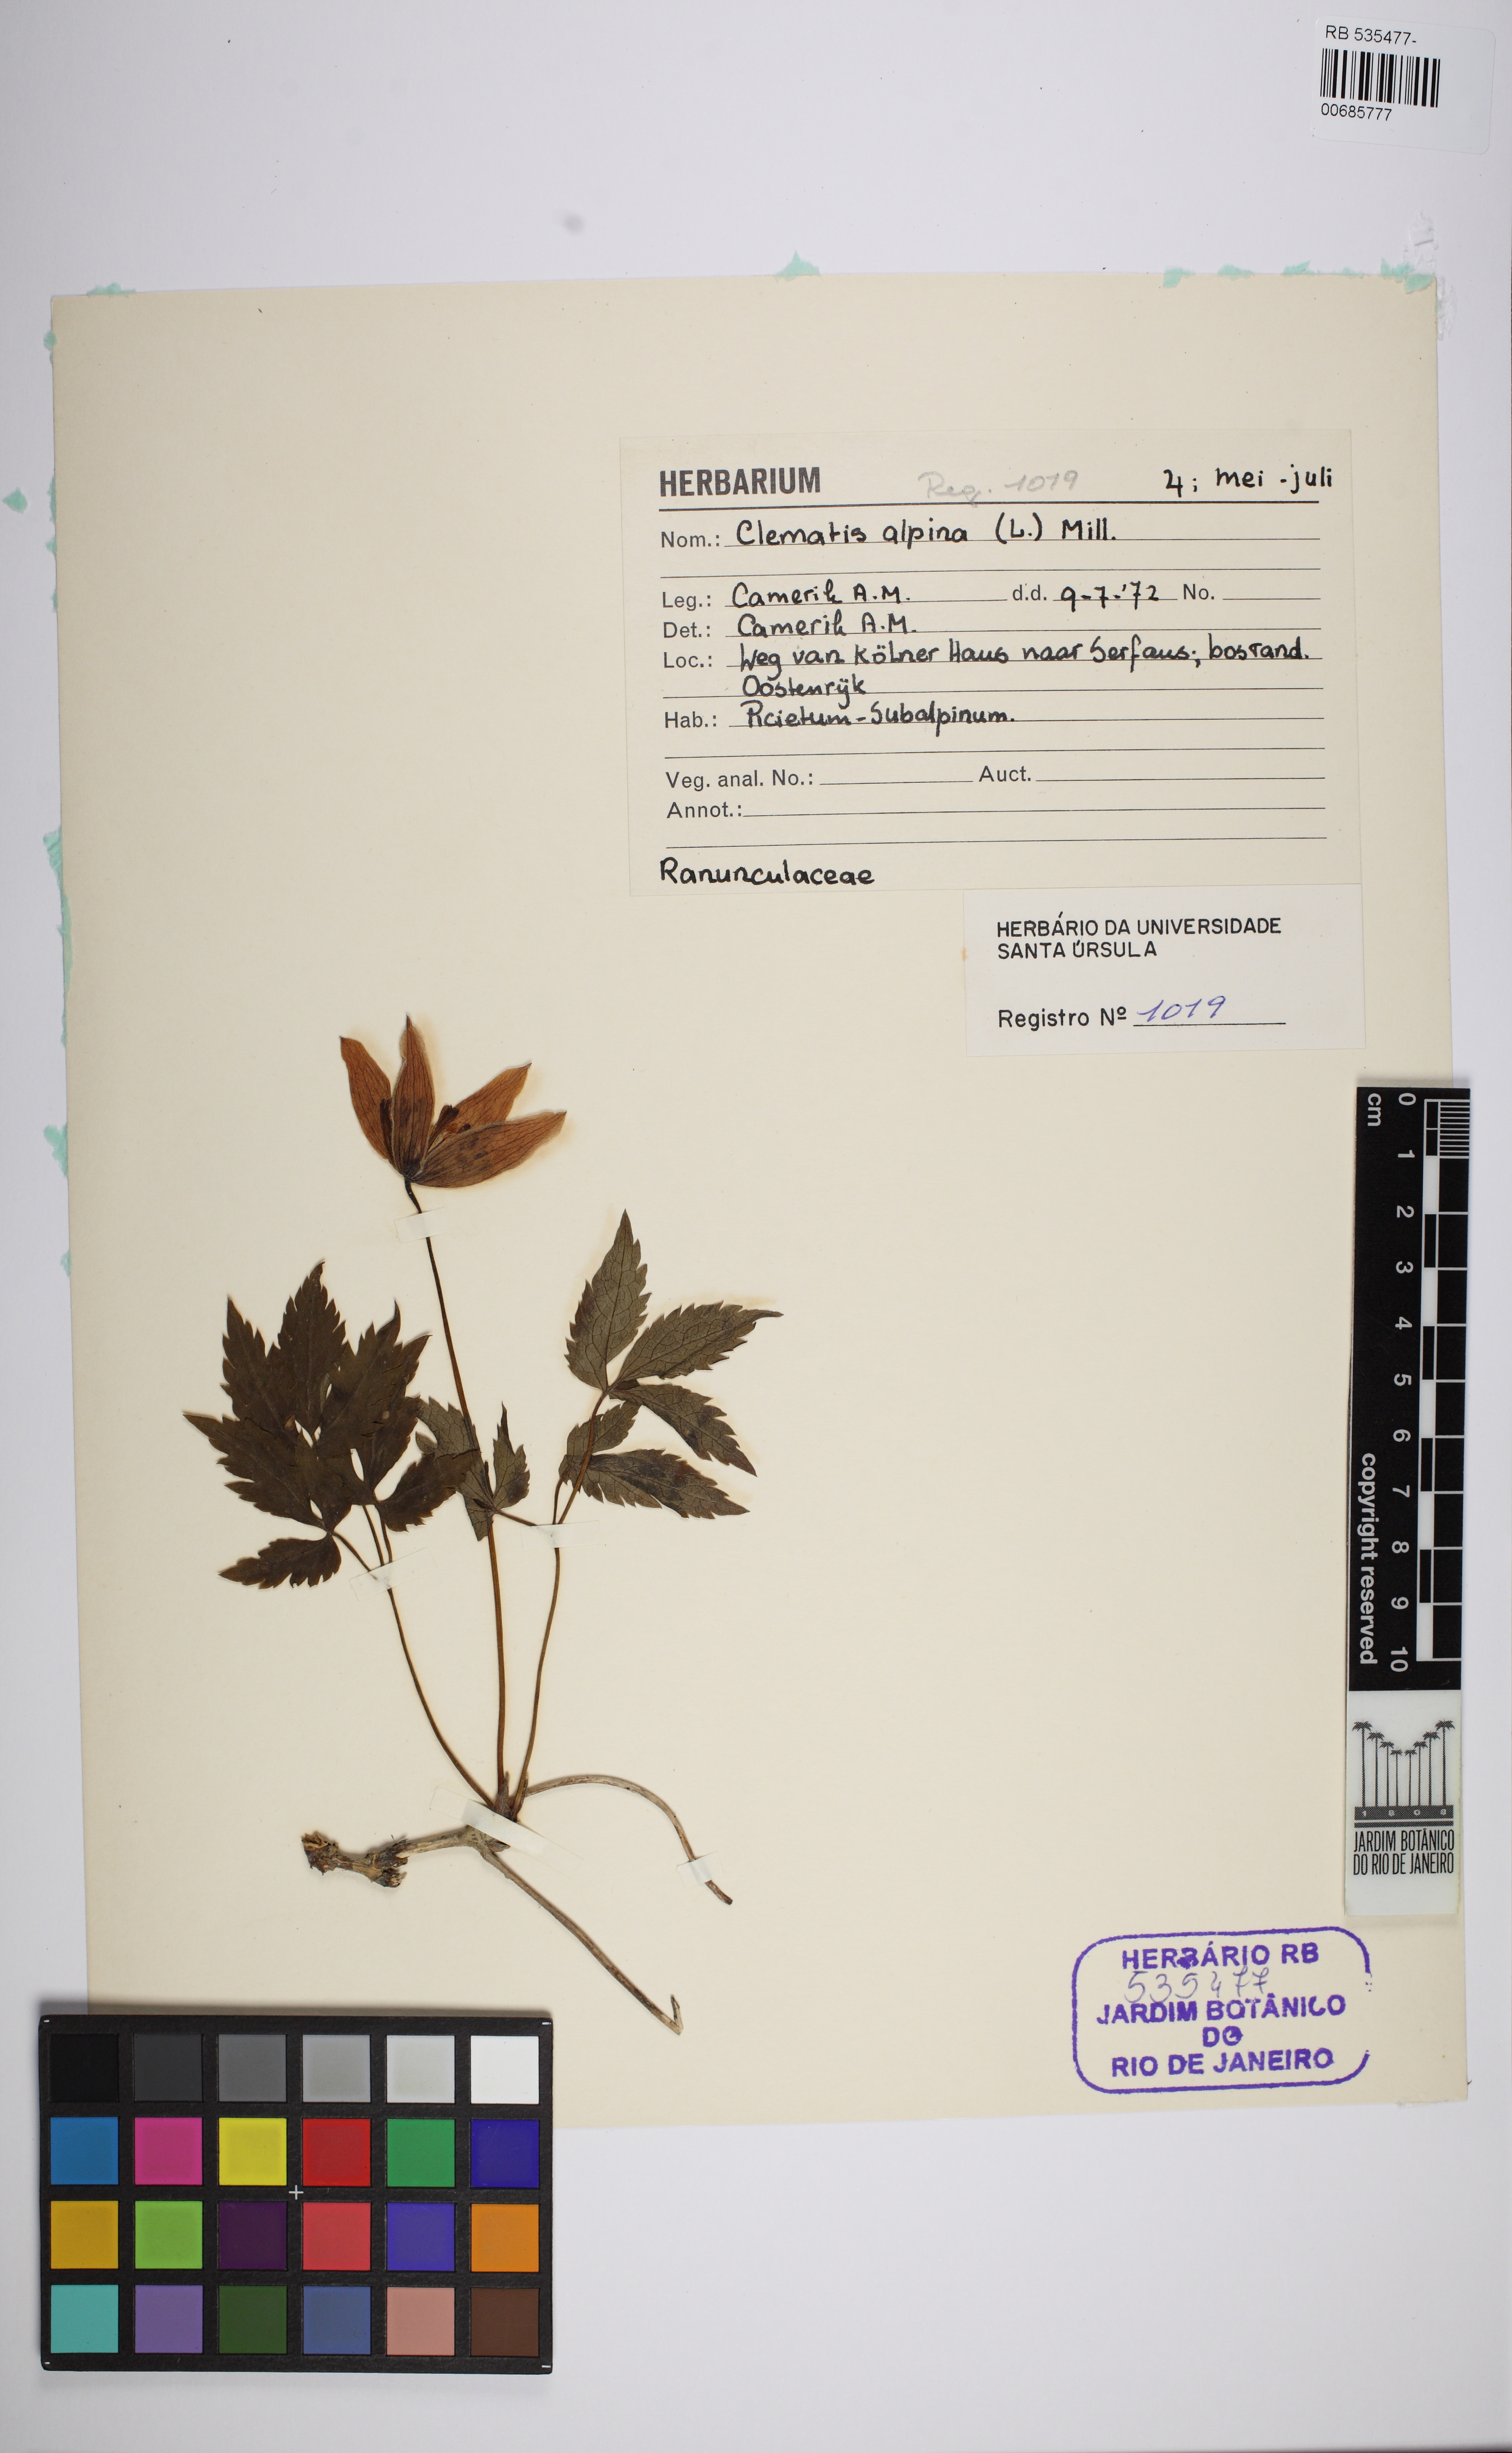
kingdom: Plantae
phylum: Tracheophyta
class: Magnoliopsida
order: Ranunculales
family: Ranunculaceae
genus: Clematis
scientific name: Clematis alpina
